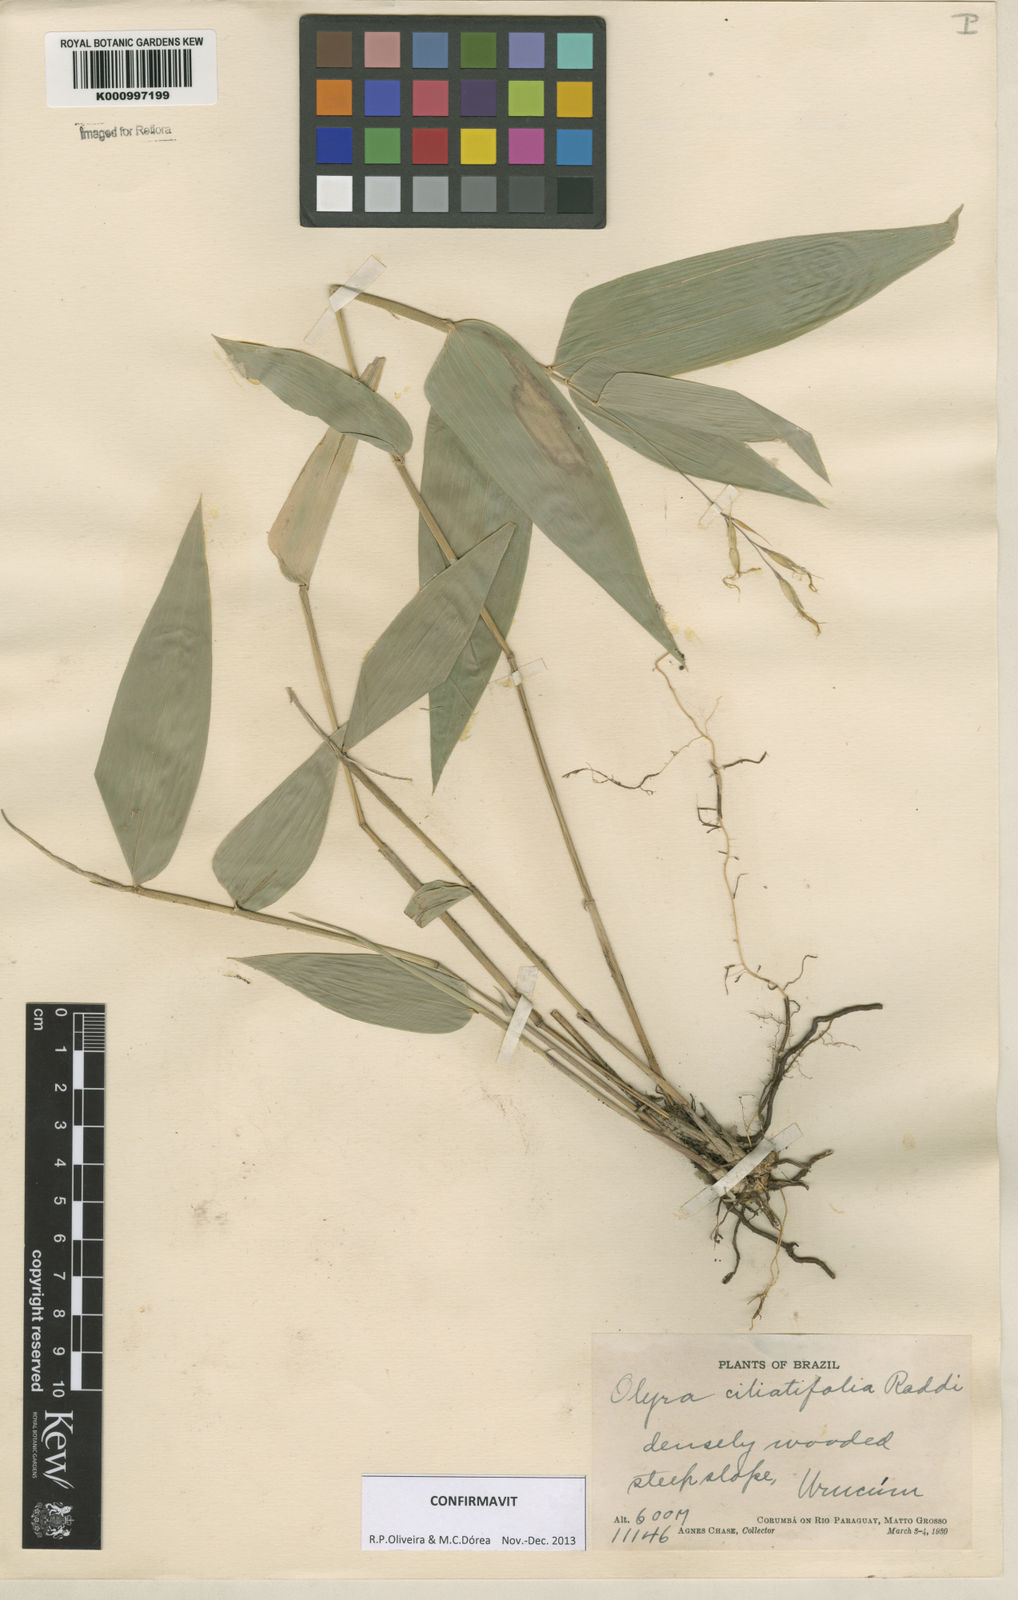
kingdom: Plantae
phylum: Tracheophyta
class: Liliopsida
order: Poales
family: Poaceae
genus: Olyra
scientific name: Olyra ciliatifolia
